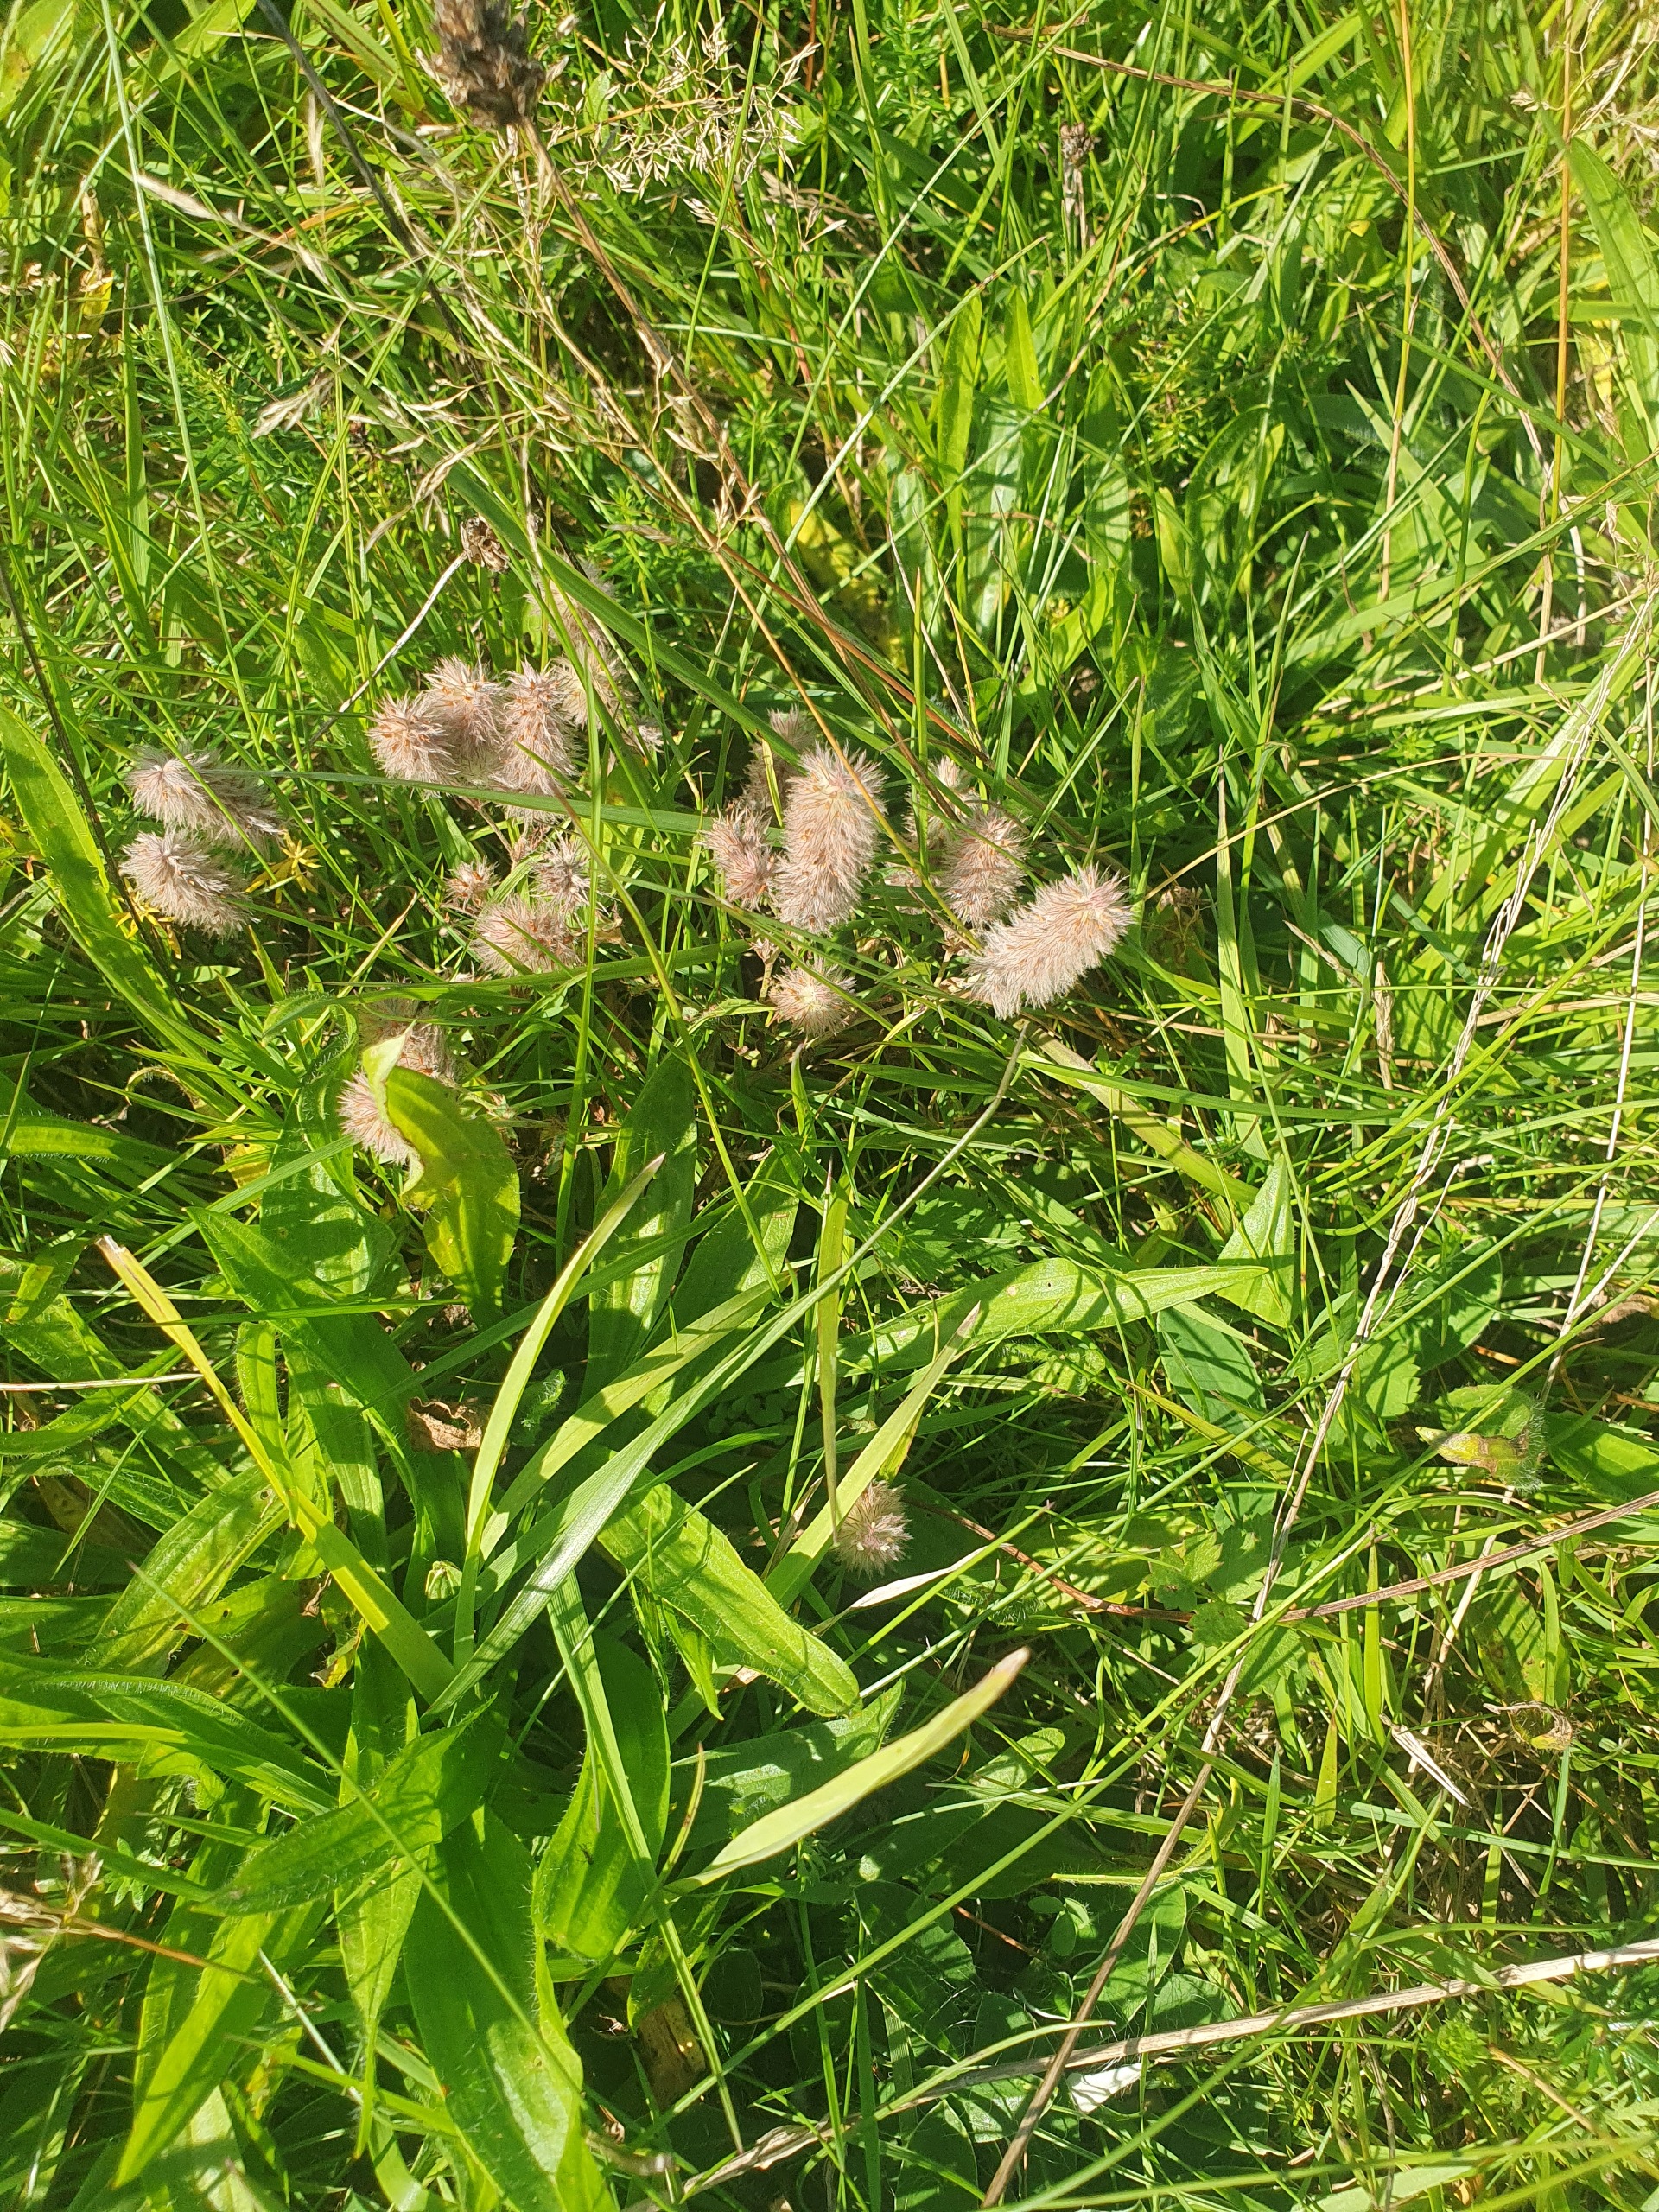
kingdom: Plantae
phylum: Tracheophyta
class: Magnoliopsida
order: Fabales
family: Fabaceae
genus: Trifolium
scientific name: Trifolium arvense
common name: Hare-kløver
